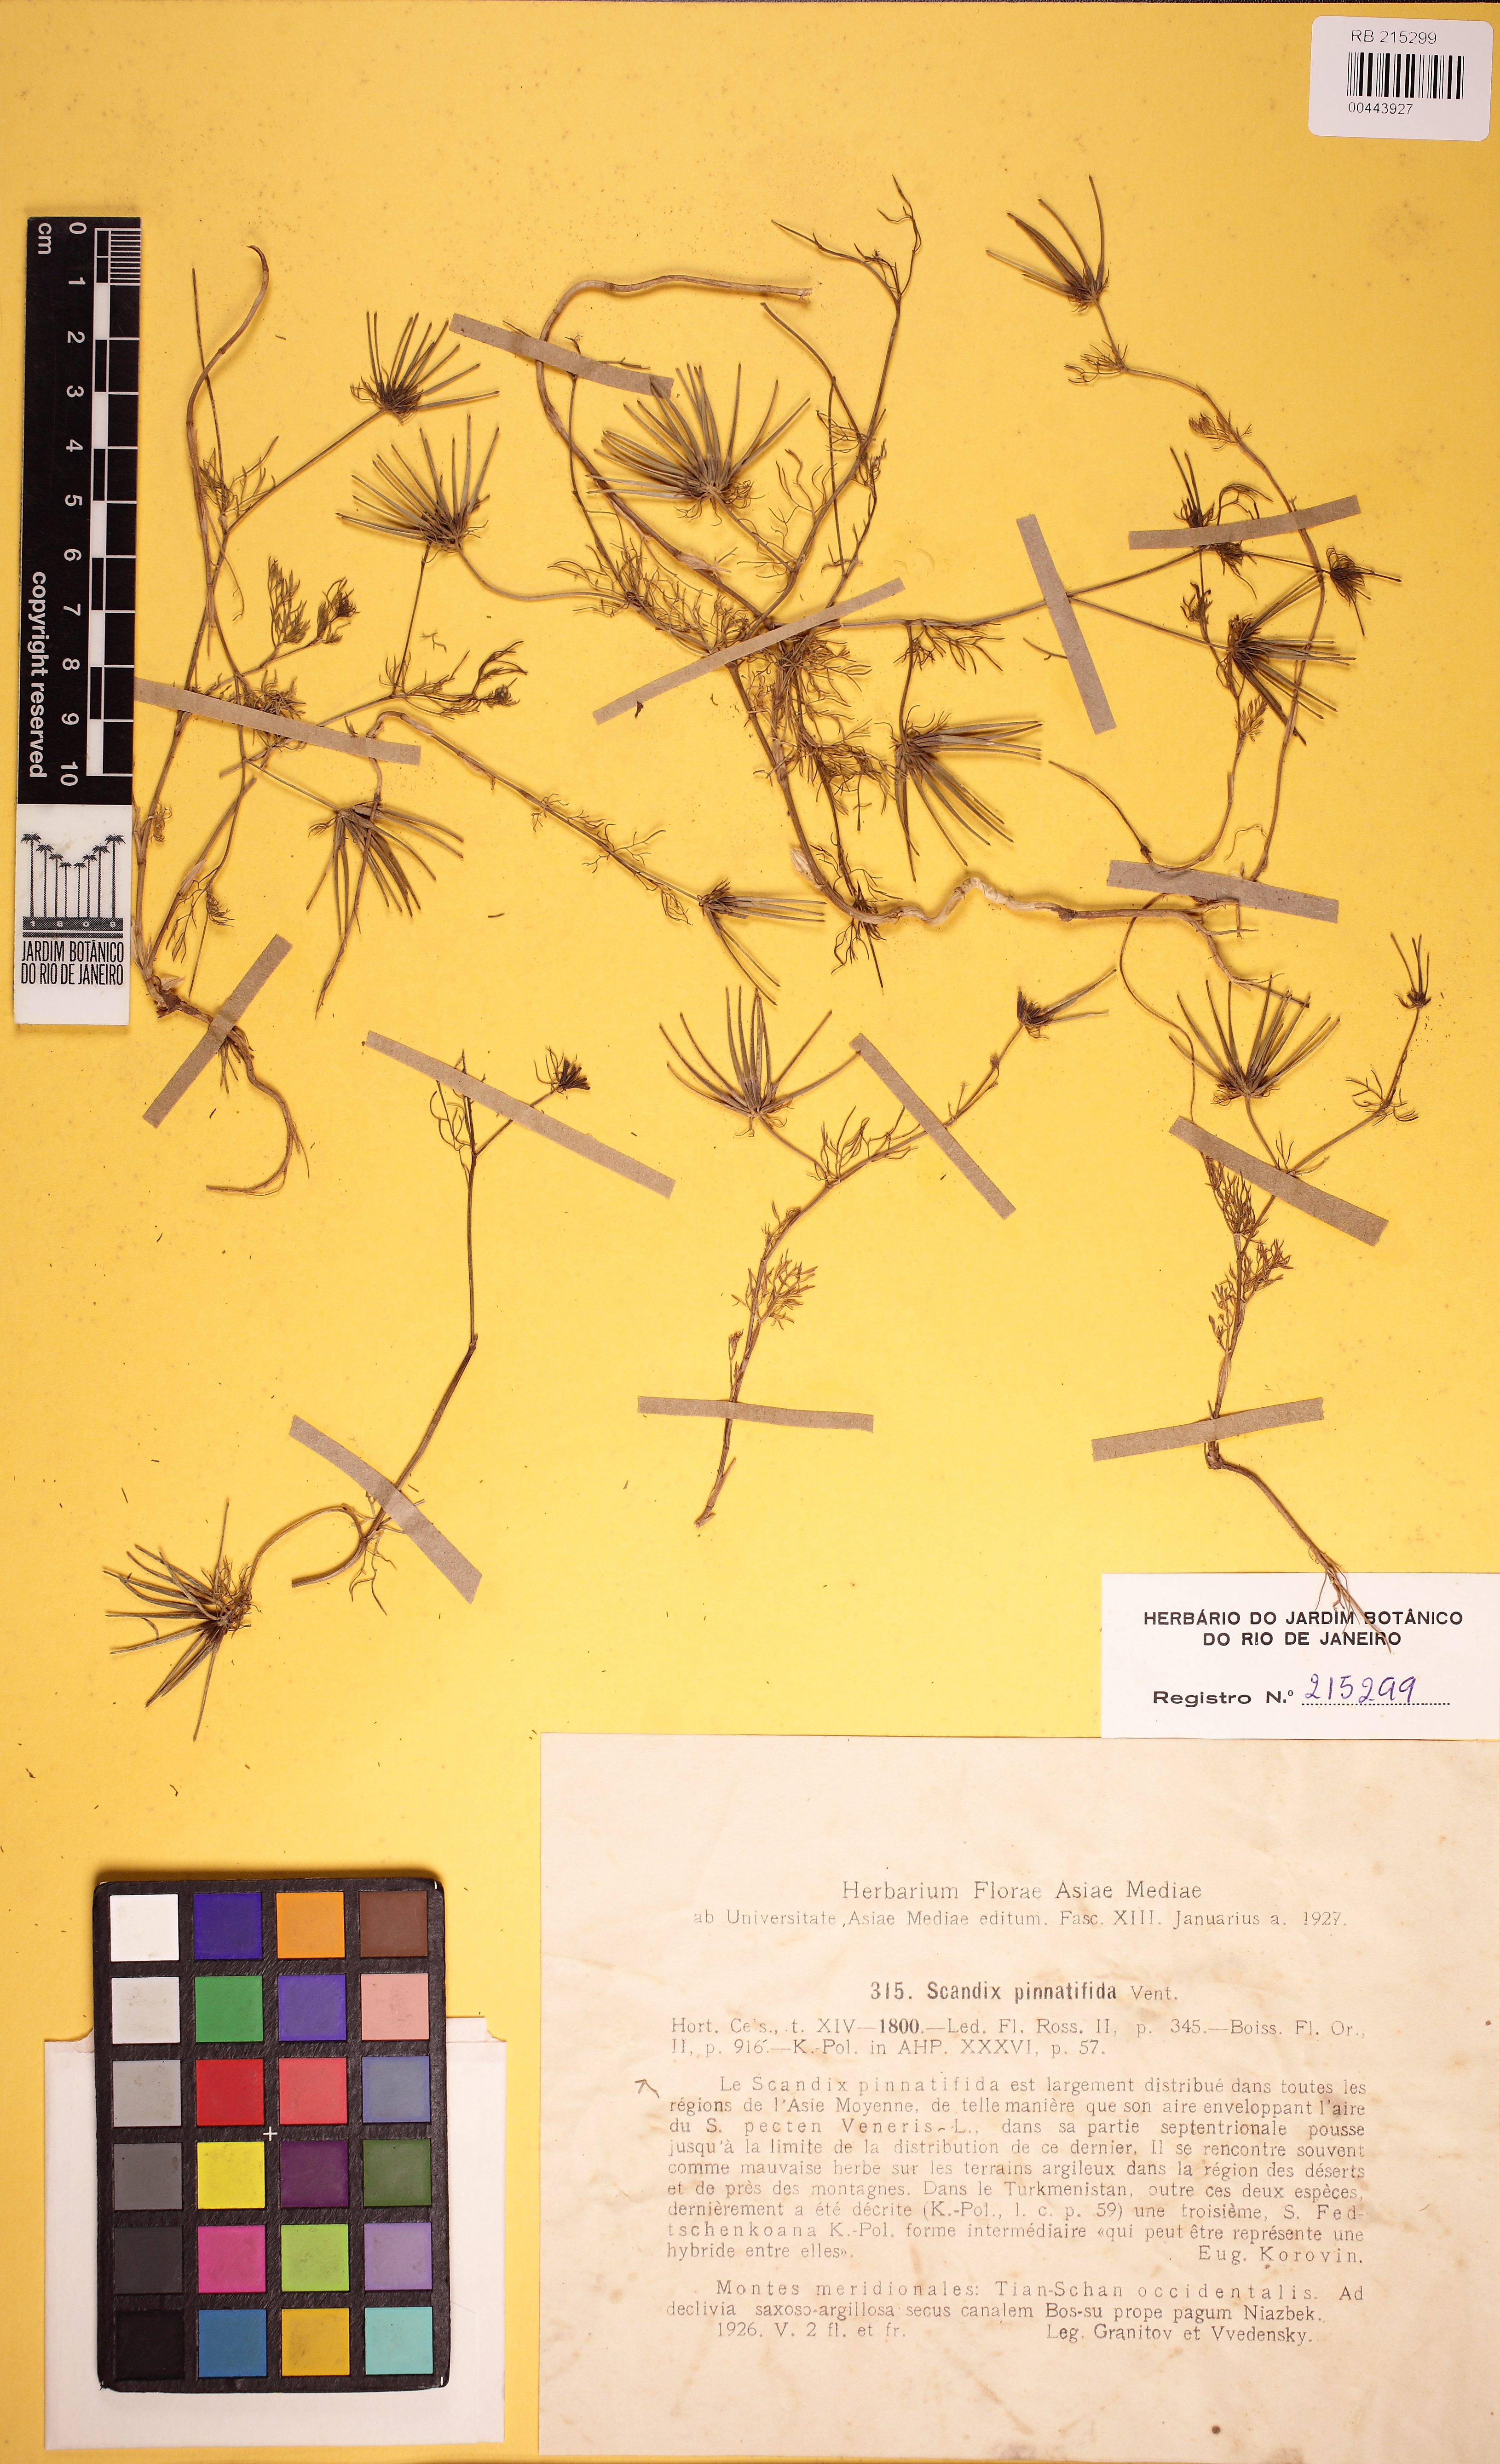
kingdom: Plantae
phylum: Tracheophyta
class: Magnoliopsida
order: Apiales
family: Apiaceae
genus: Scandix
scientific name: Scandix stellata
